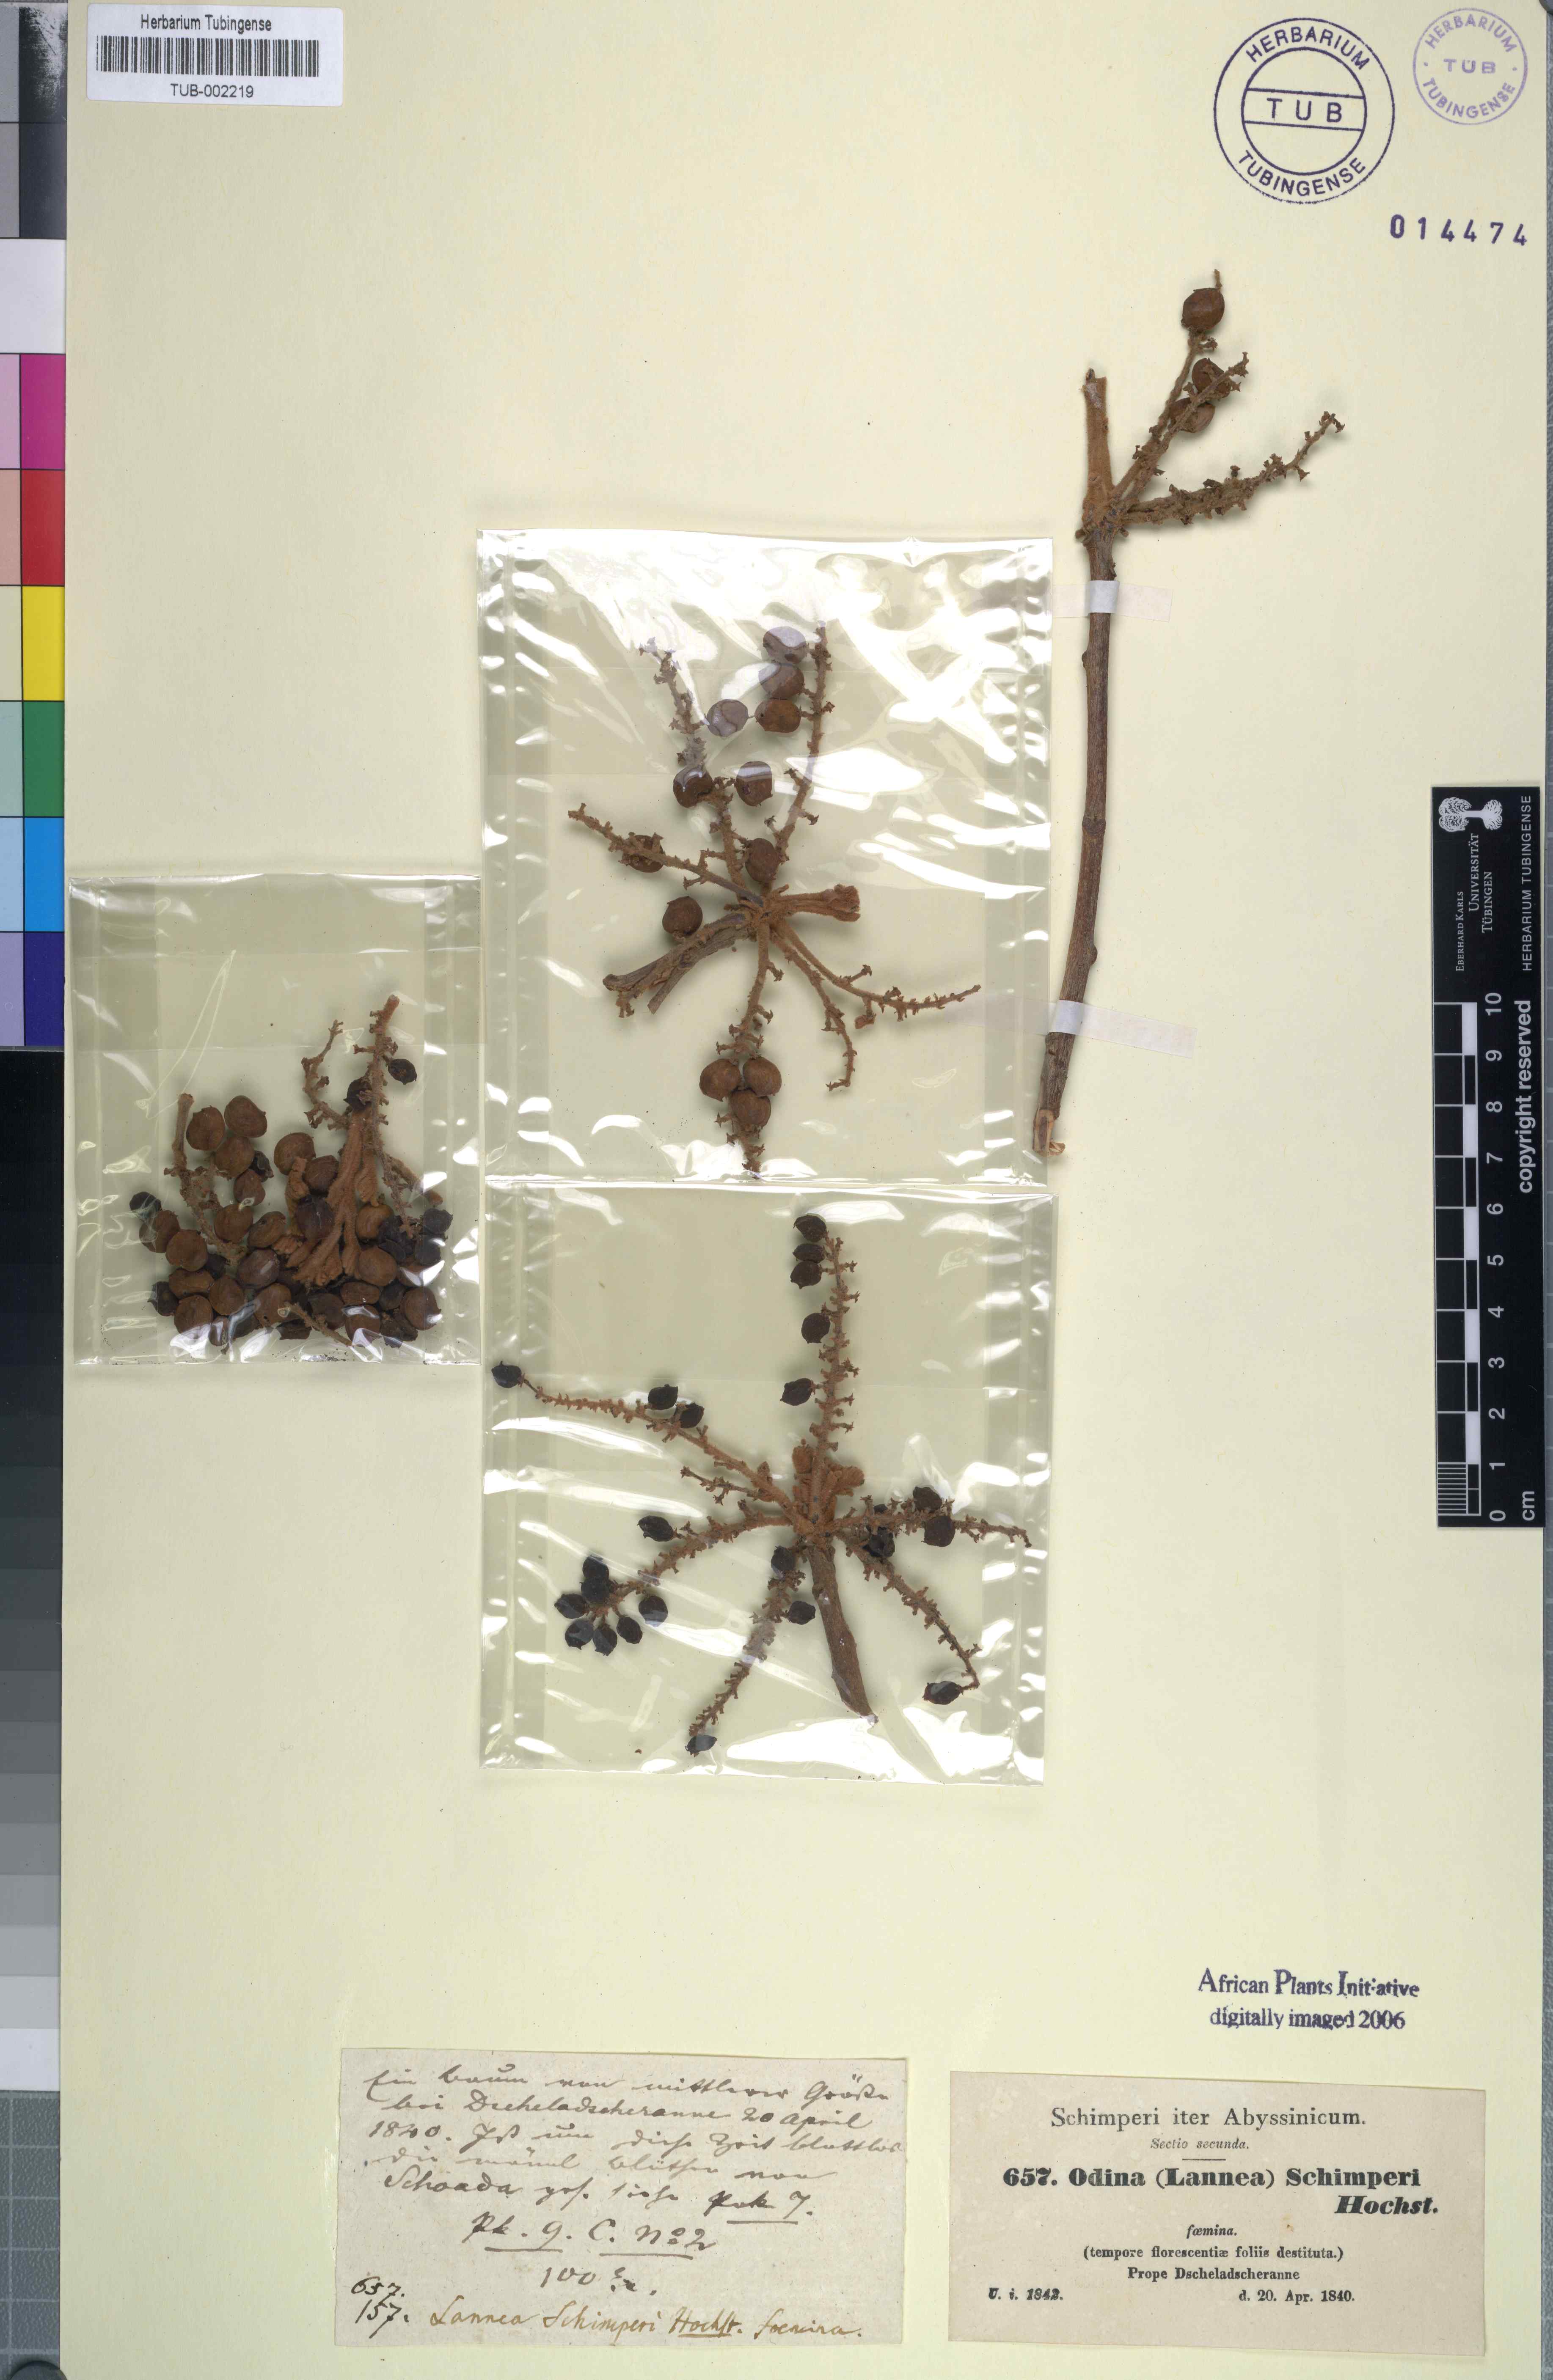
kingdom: Plantae
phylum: Tracheophyta
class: Magnoliopsida
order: Sapindales
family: Anacardiaceae
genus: Lannea
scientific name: Lannea schimperi
